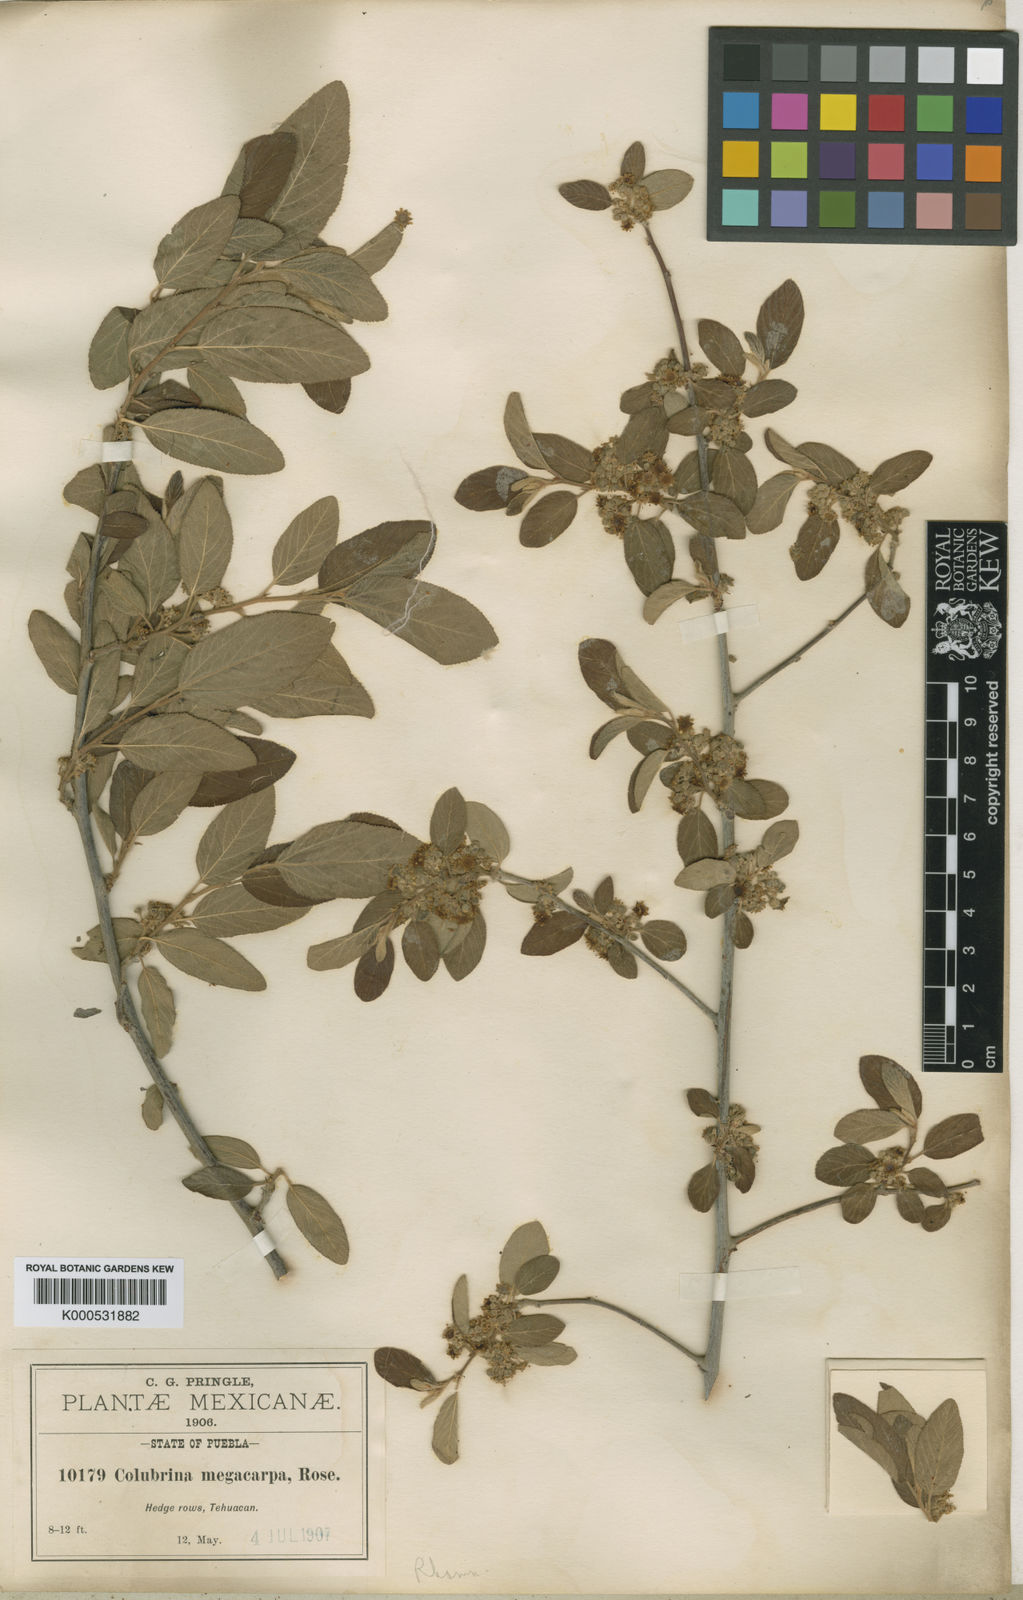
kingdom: Plantae
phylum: Tracheophyta
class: Magnoliopsida
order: Rosales
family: Rhamnaceae
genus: Colubrina
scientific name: Colubrina macrocarpa
